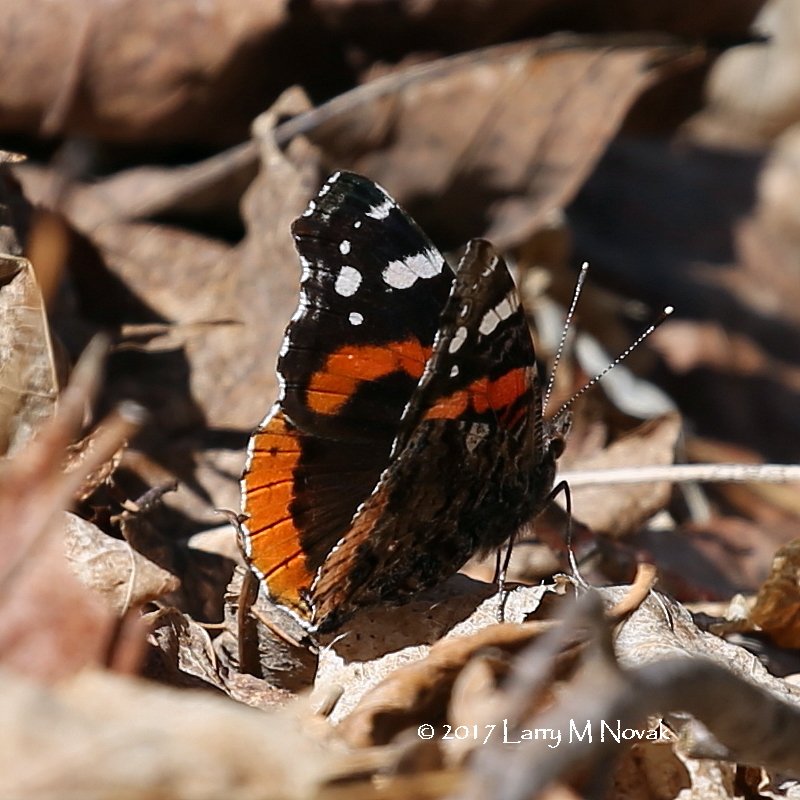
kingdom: Animalia
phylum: Arthropoda
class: Insecta
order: Lepidoptera
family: Nymphalidae
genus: Vanessa
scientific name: Vanessa atalanta
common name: Red Admiral
